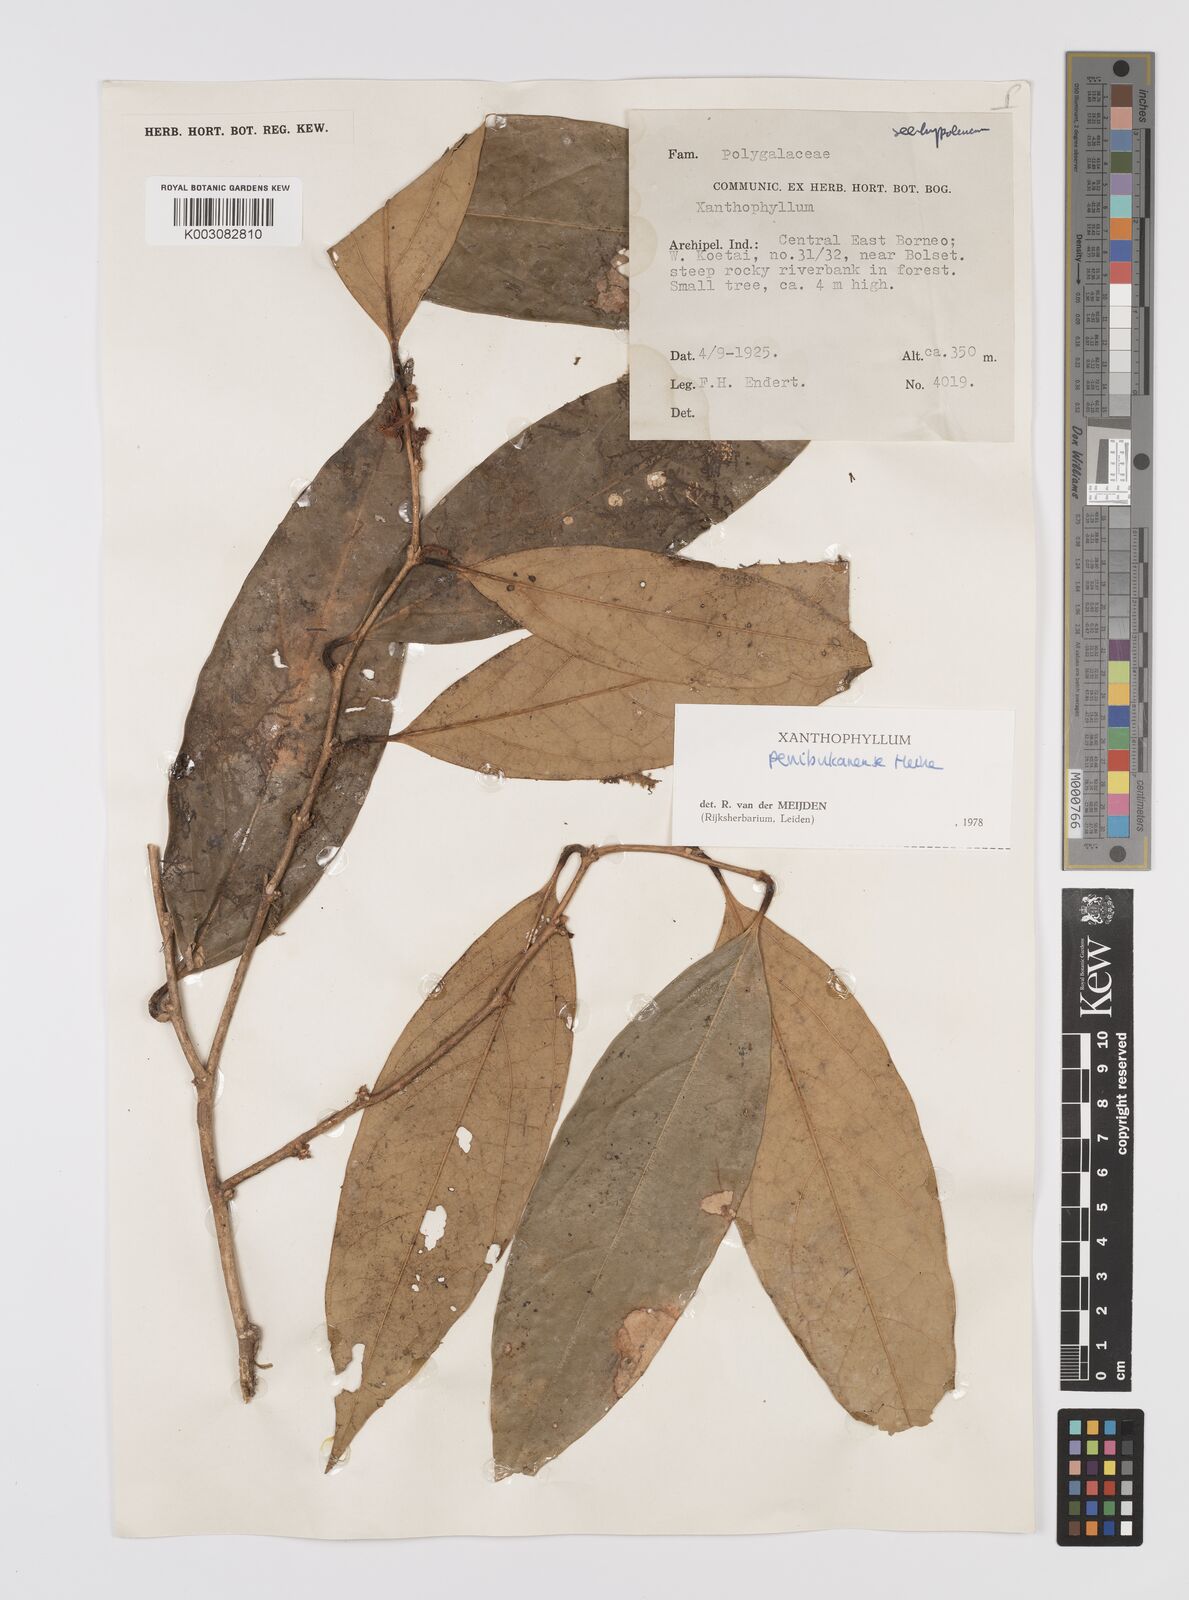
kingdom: Plantae
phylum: Tracheophyta
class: Magnoliopsida
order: Fabales
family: Polygalaceae
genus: Xanthophyllum
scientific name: Xanthophyllum penibukanense
